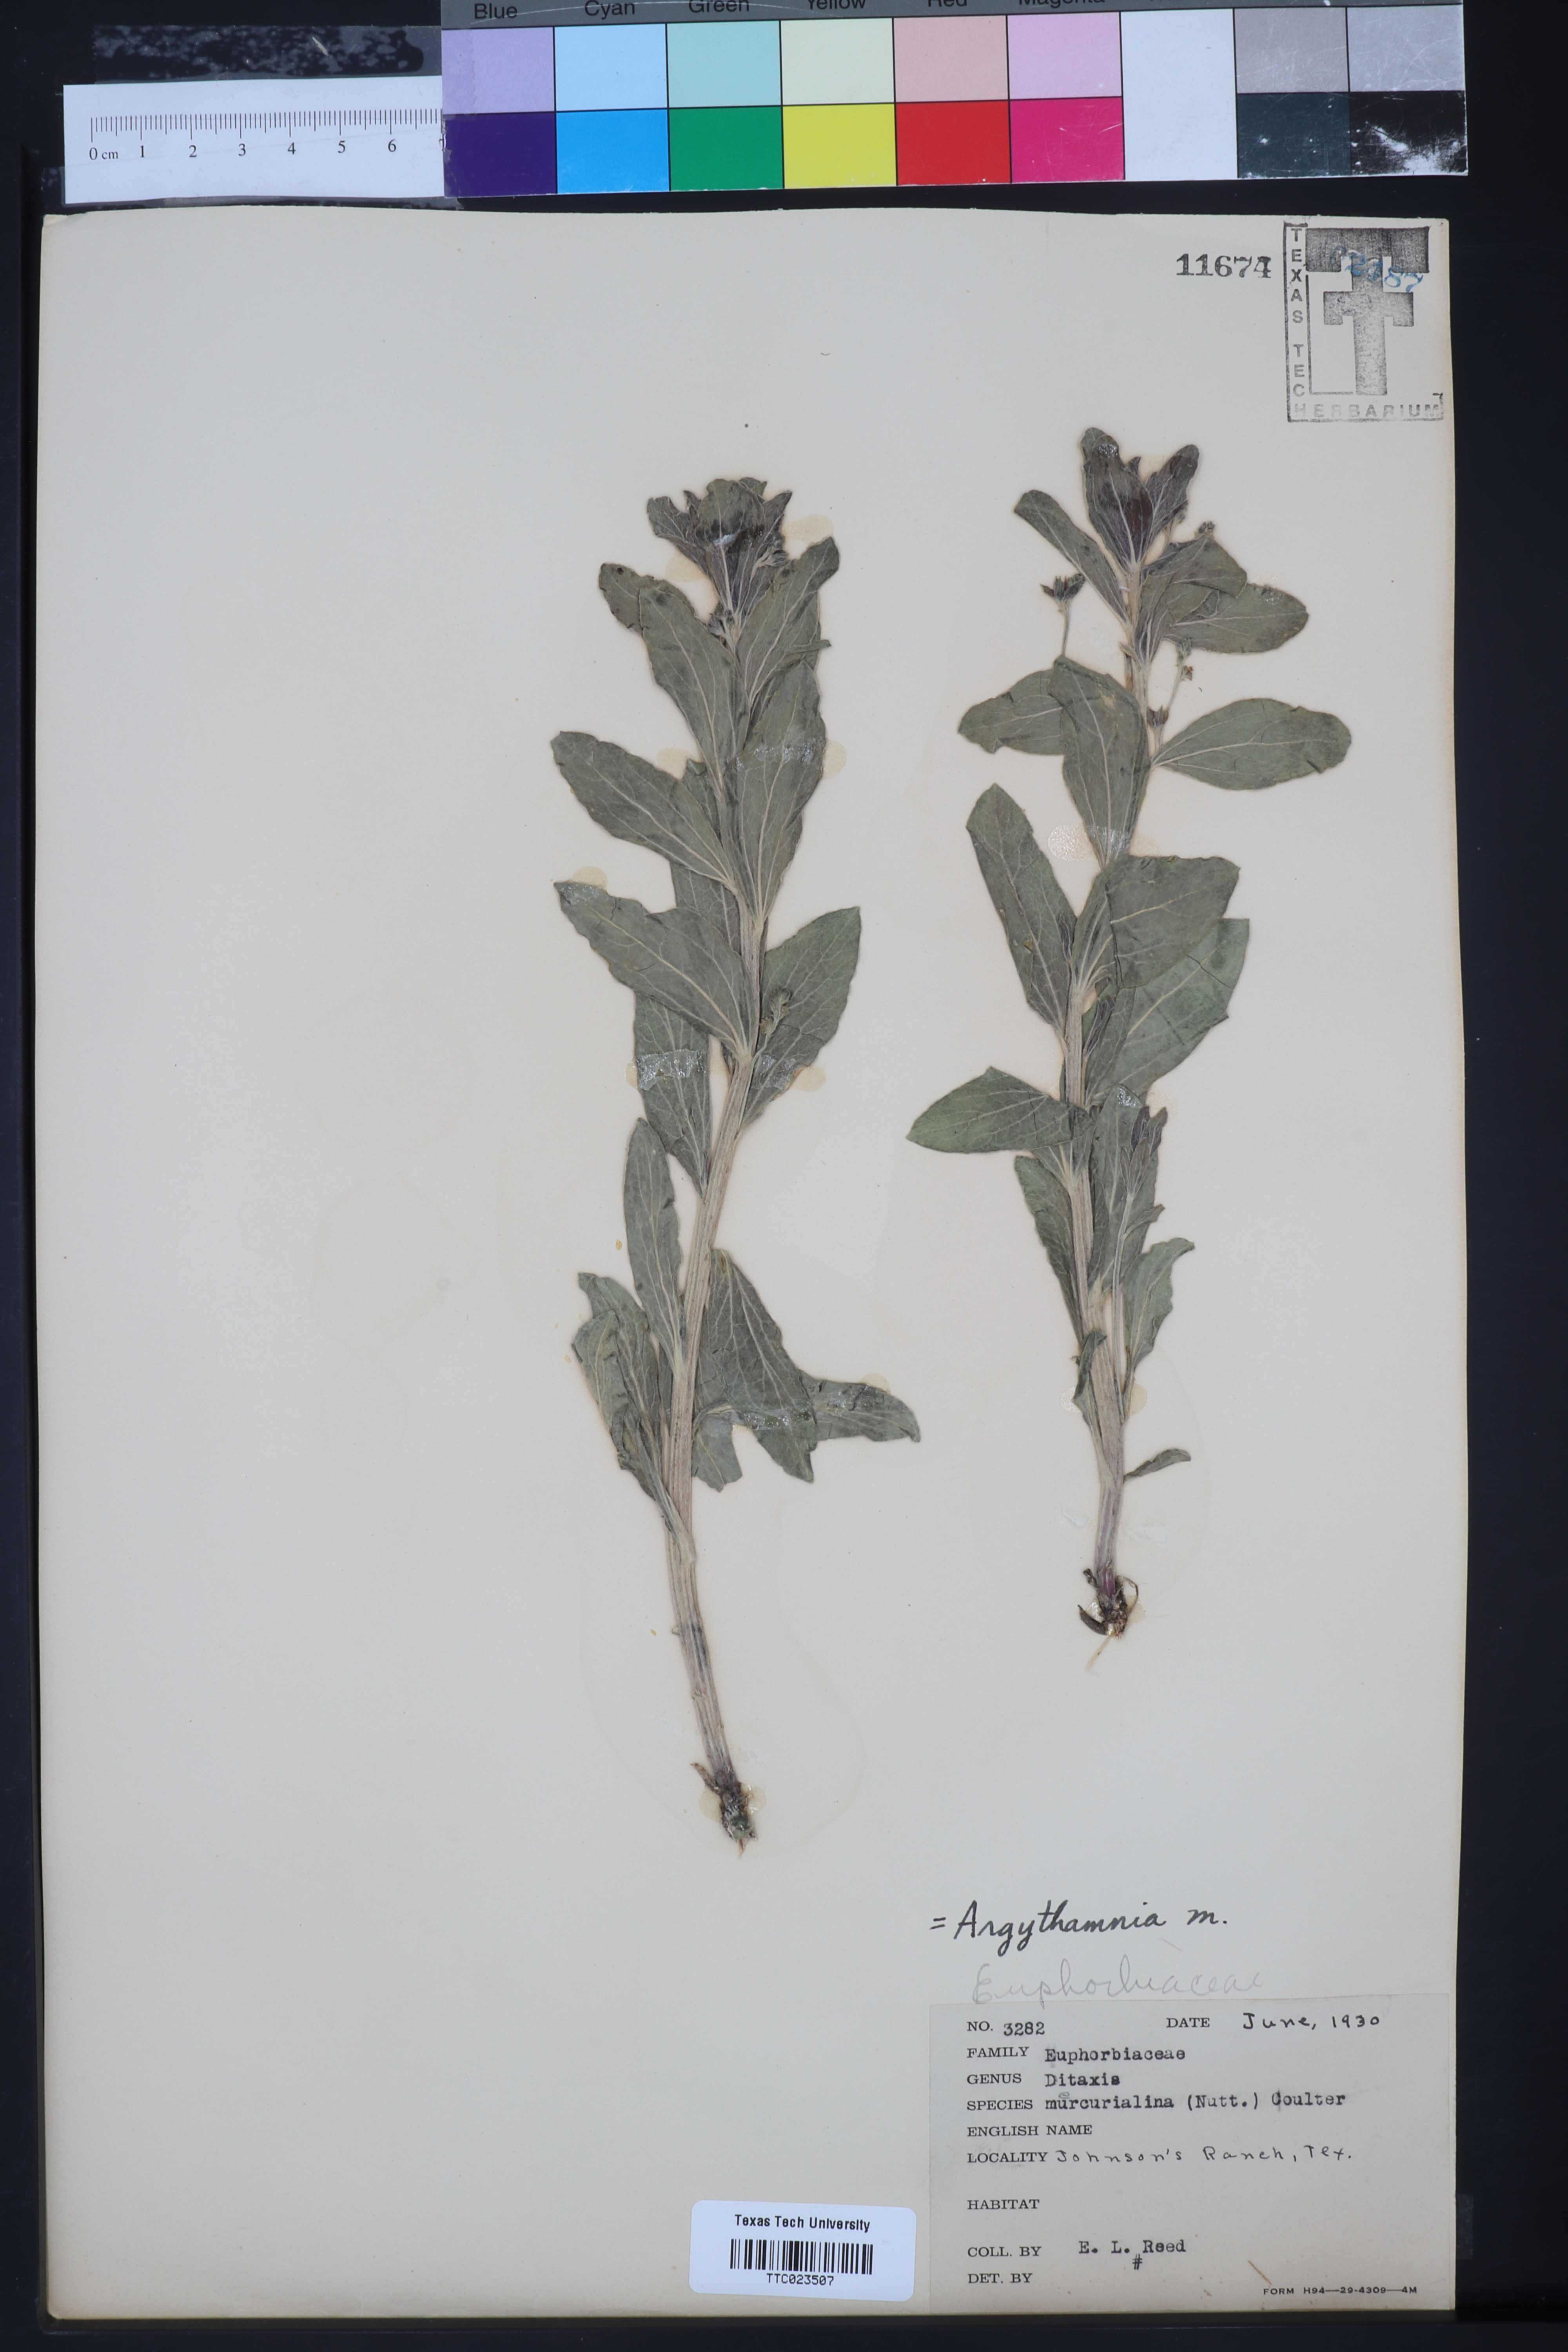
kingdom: Plantae
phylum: Tracheophyta
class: Magnoliopsida
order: Malpighiales
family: Euphorbiaceae
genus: Ditaxis
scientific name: Ditaxis mercurialina
